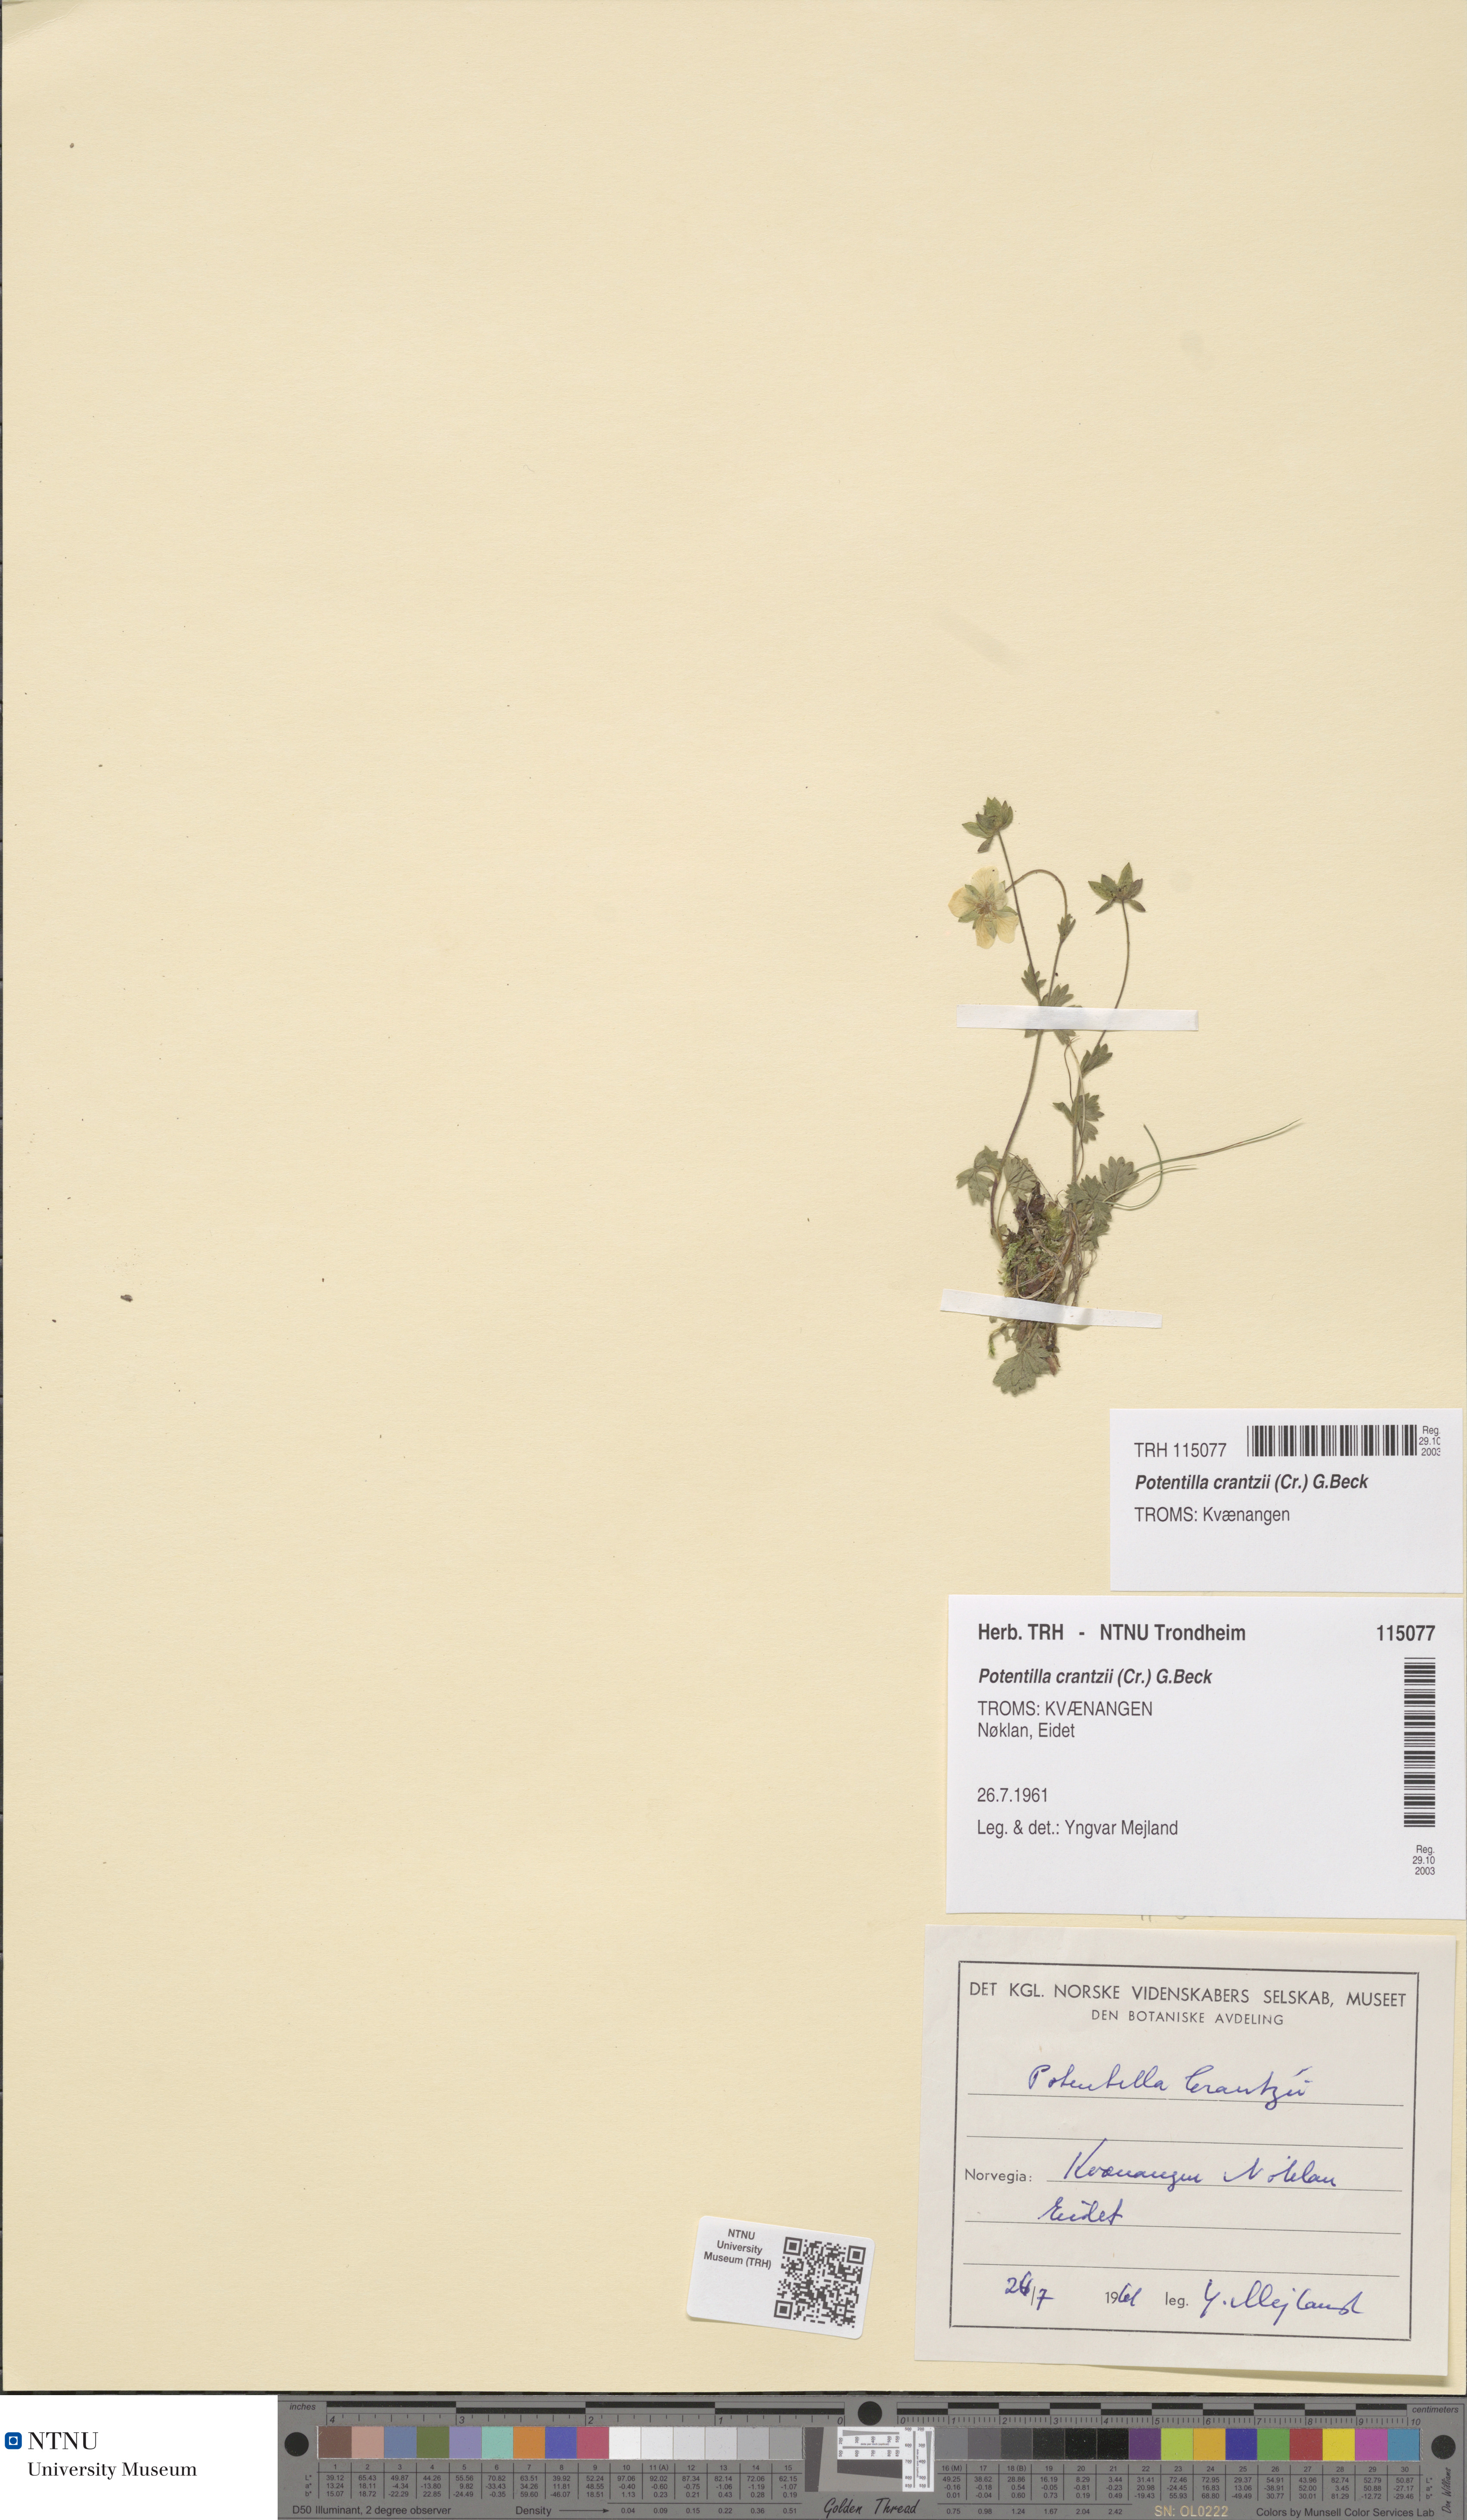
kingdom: Plantae
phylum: Tracheophyta
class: Magnoliopsida
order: Rosales
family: Rosaceae
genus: Potentilla
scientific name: Potentilla crantzii
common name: Alpine cinquefoil
